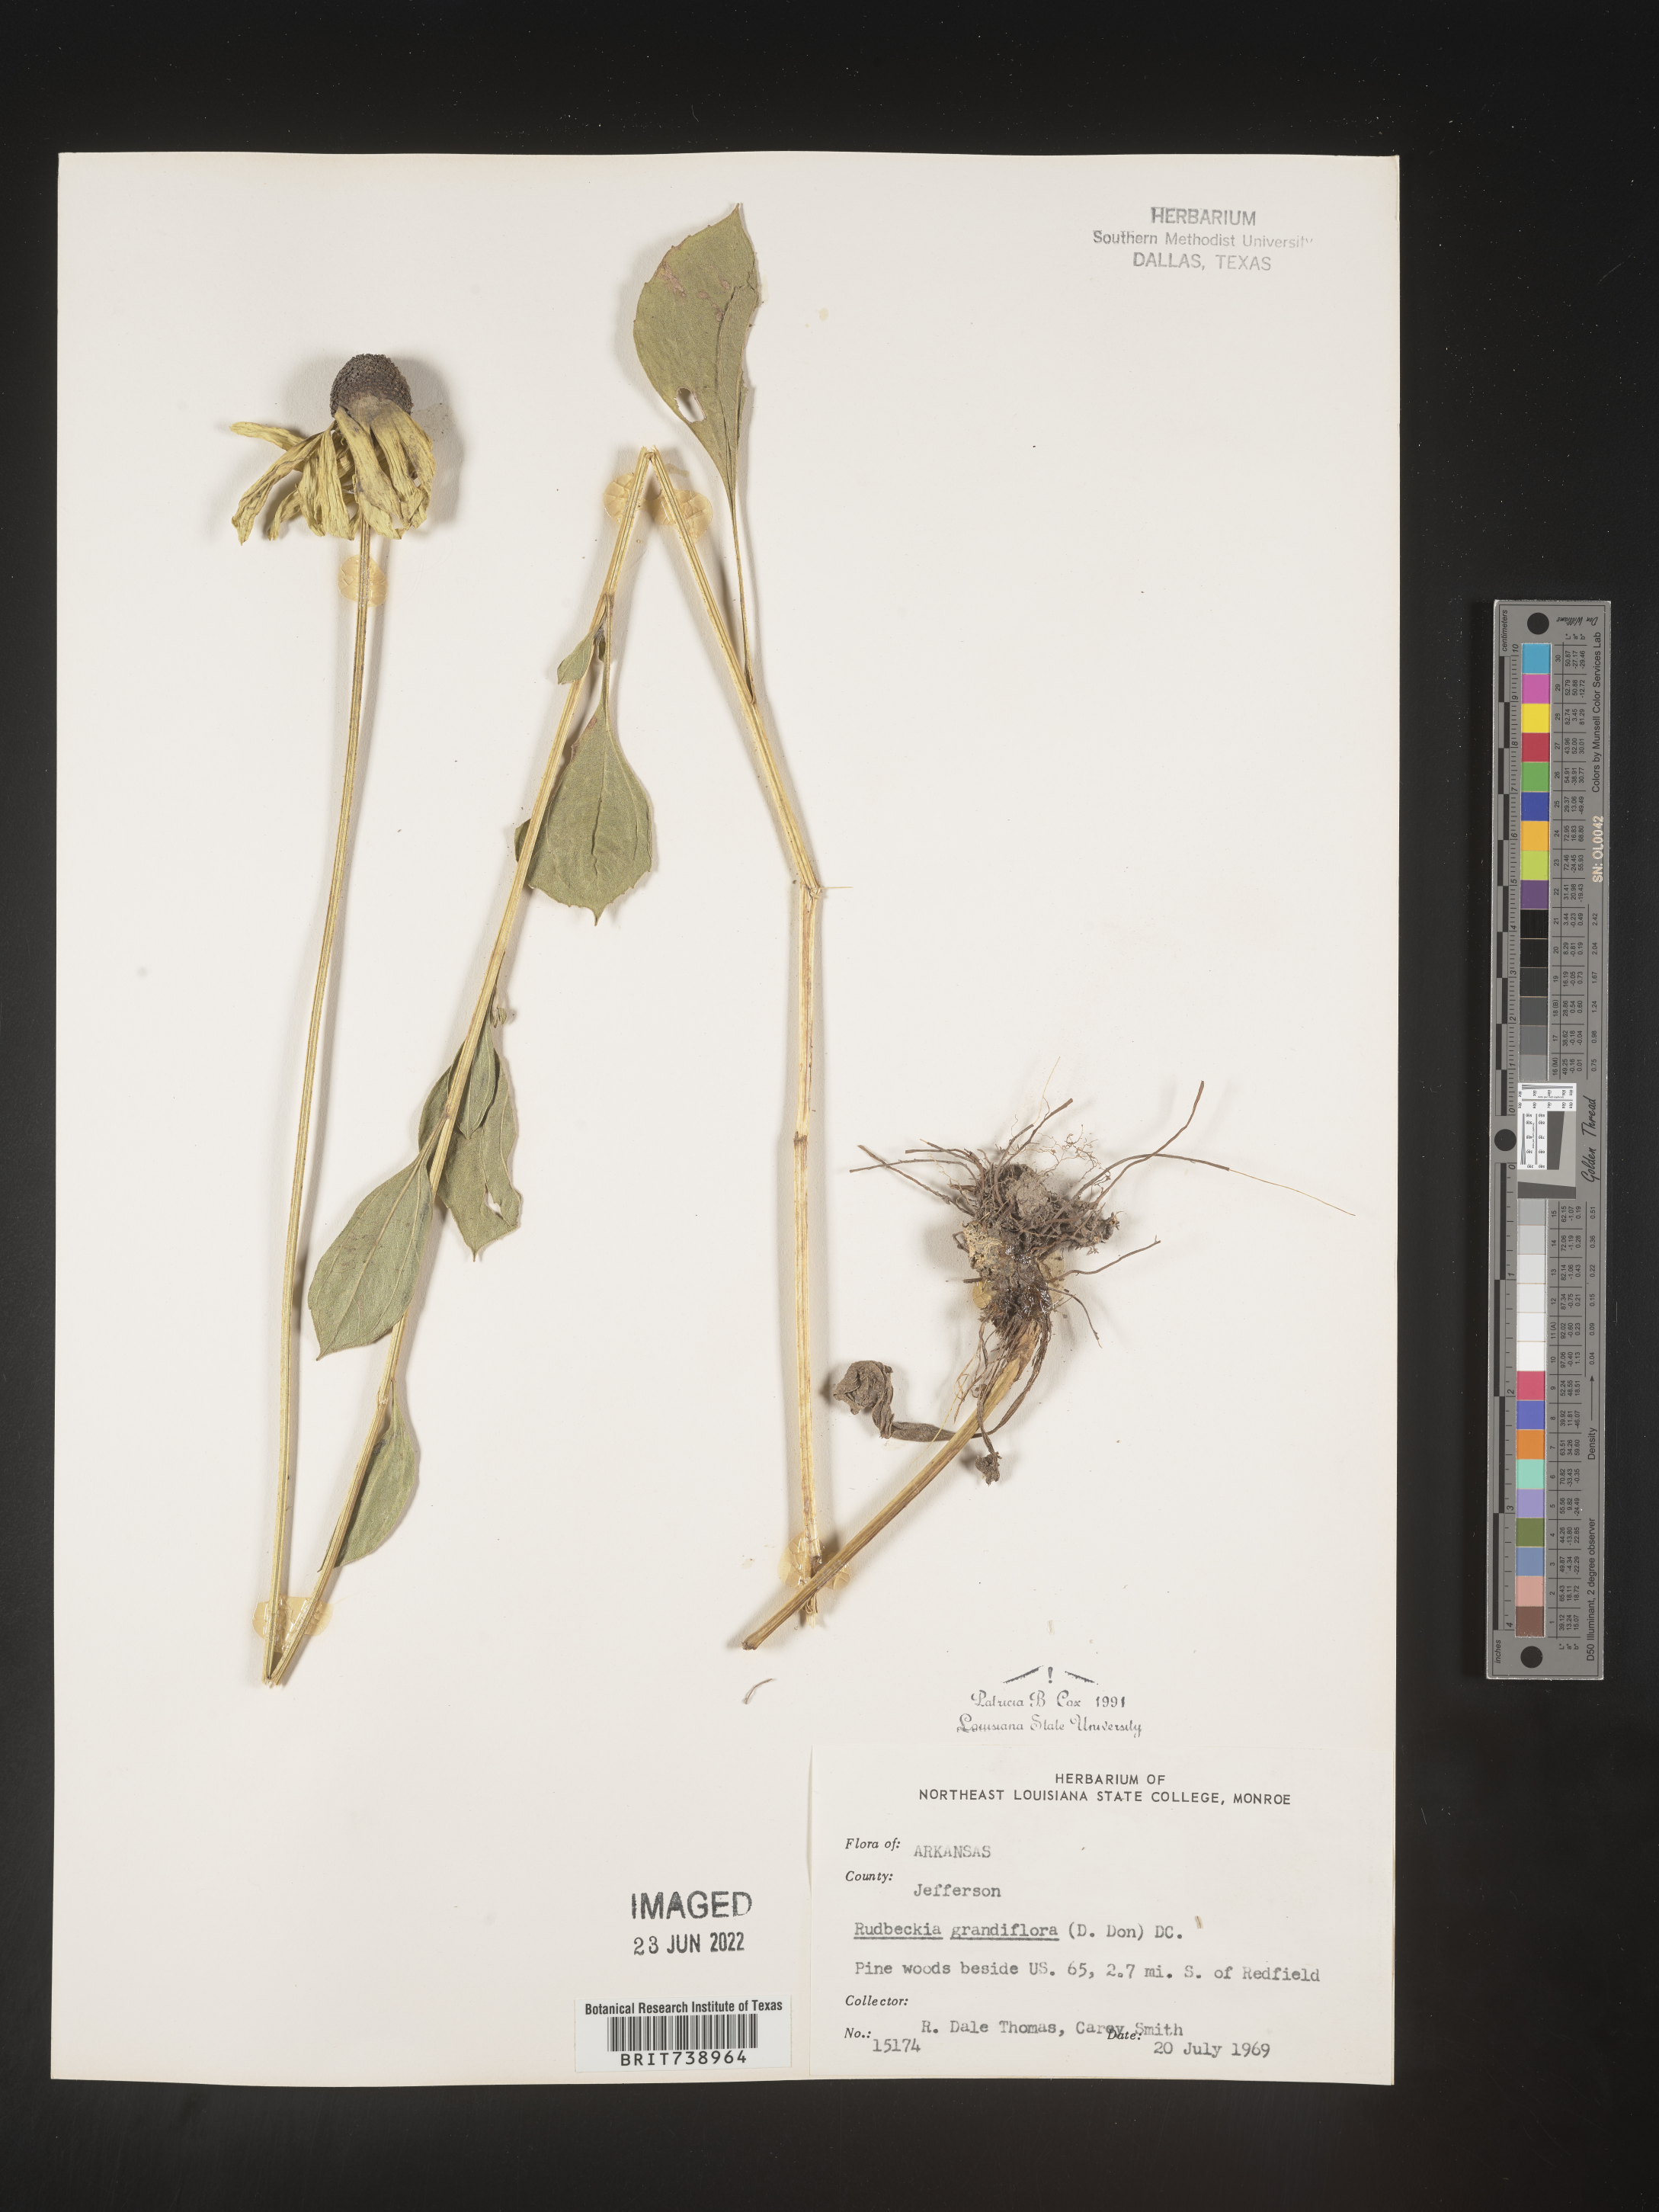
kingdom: Plantae
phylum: Tracheophyta
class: Magnoliopsida
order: Asterales
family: Asteraceae
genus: Rudbeckia
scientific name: Rudbeckia grandiflora
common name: Large-flowered coneflower
